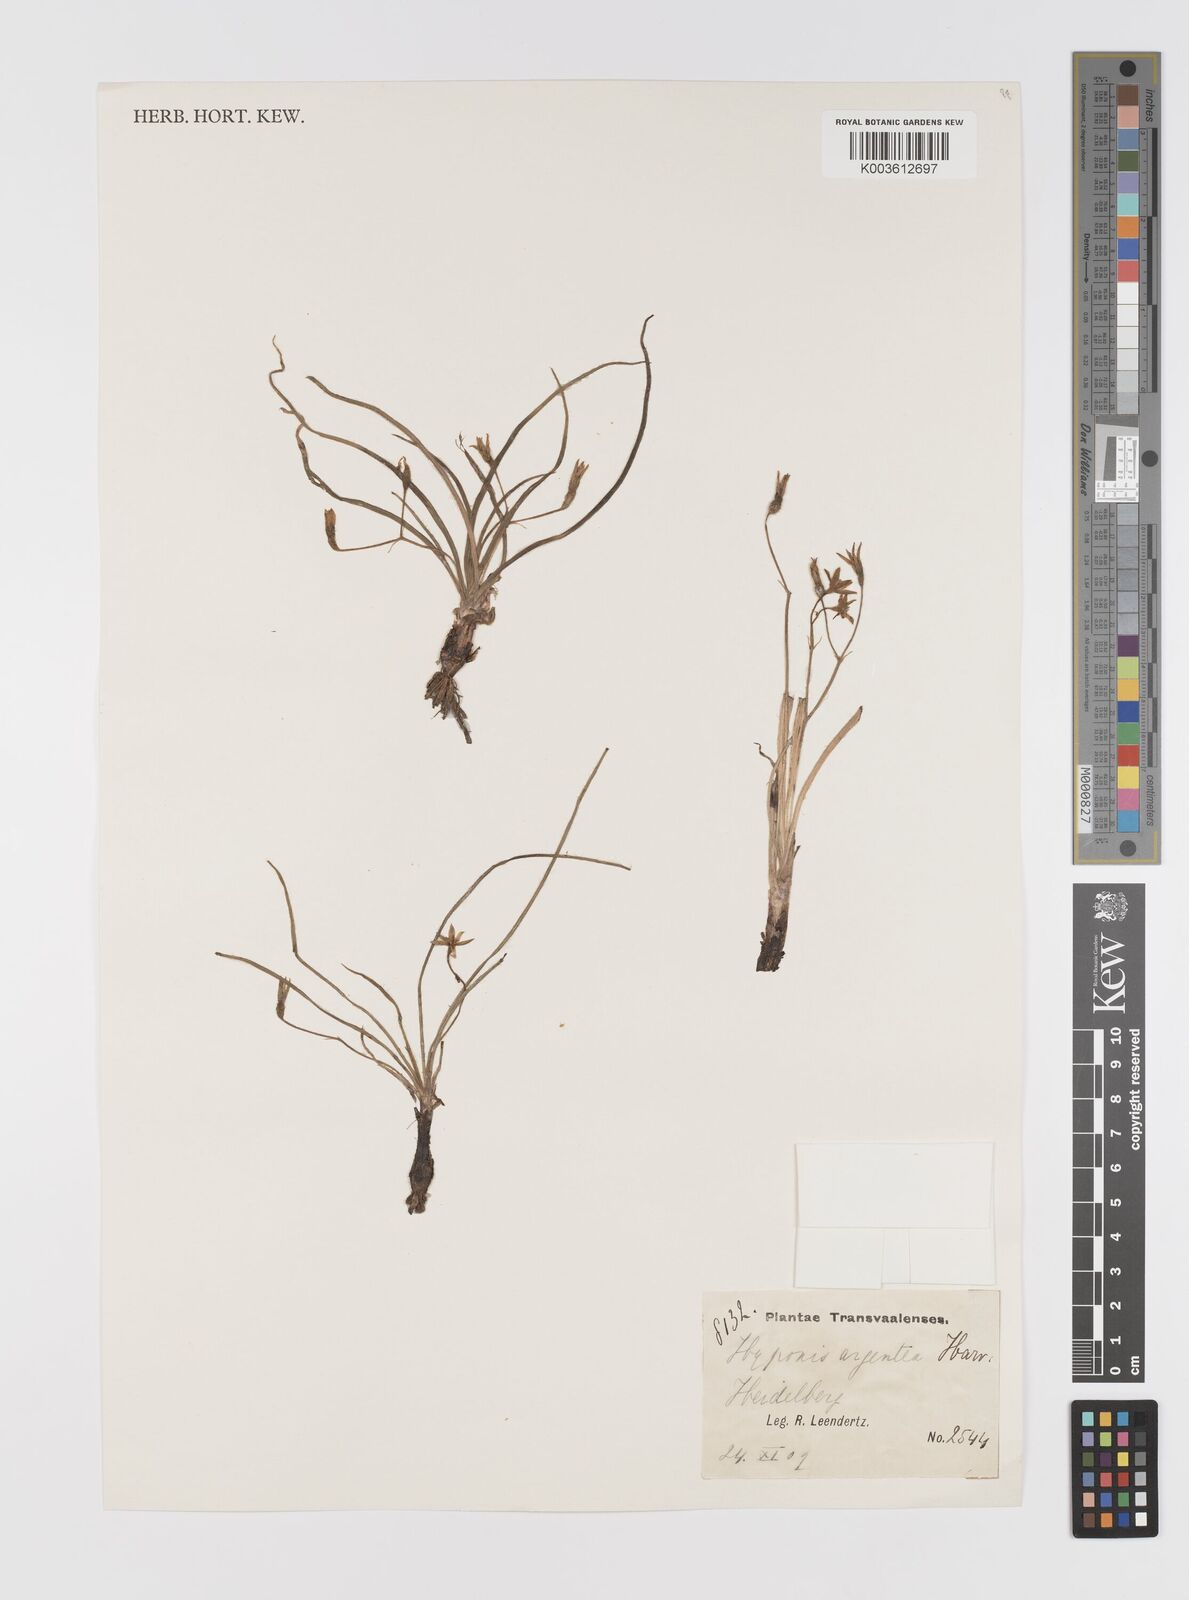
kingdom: Plantae
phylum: Tracheophyta
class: Liliopsida
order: Asparagales
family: Hypoxidaceae
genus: Hypoxis
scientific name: Hypoxis argentea
